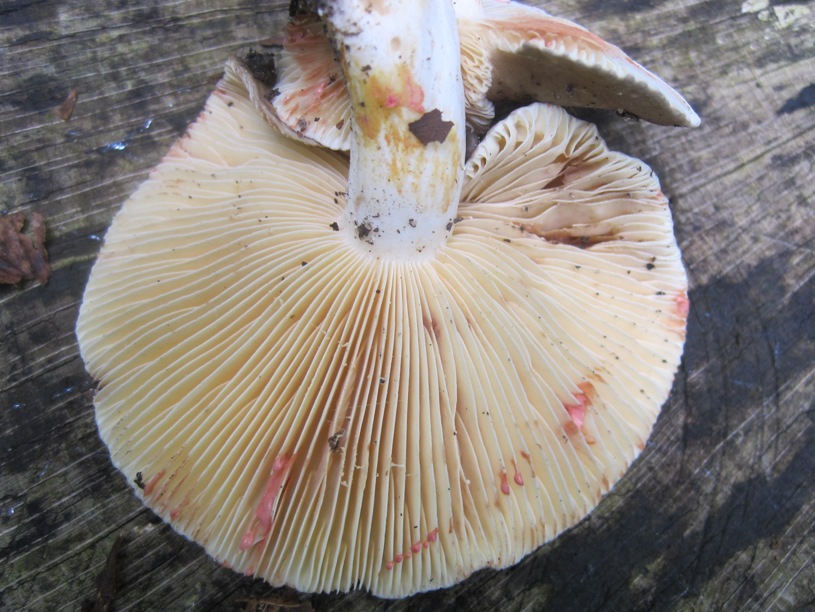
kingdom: Fungi
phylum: Basidiomycota
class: Agaricomycetes
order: Russulales
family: Russulaceae
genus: Lactarius
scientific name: Lactarius acris
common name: rosamælket mælkehat
